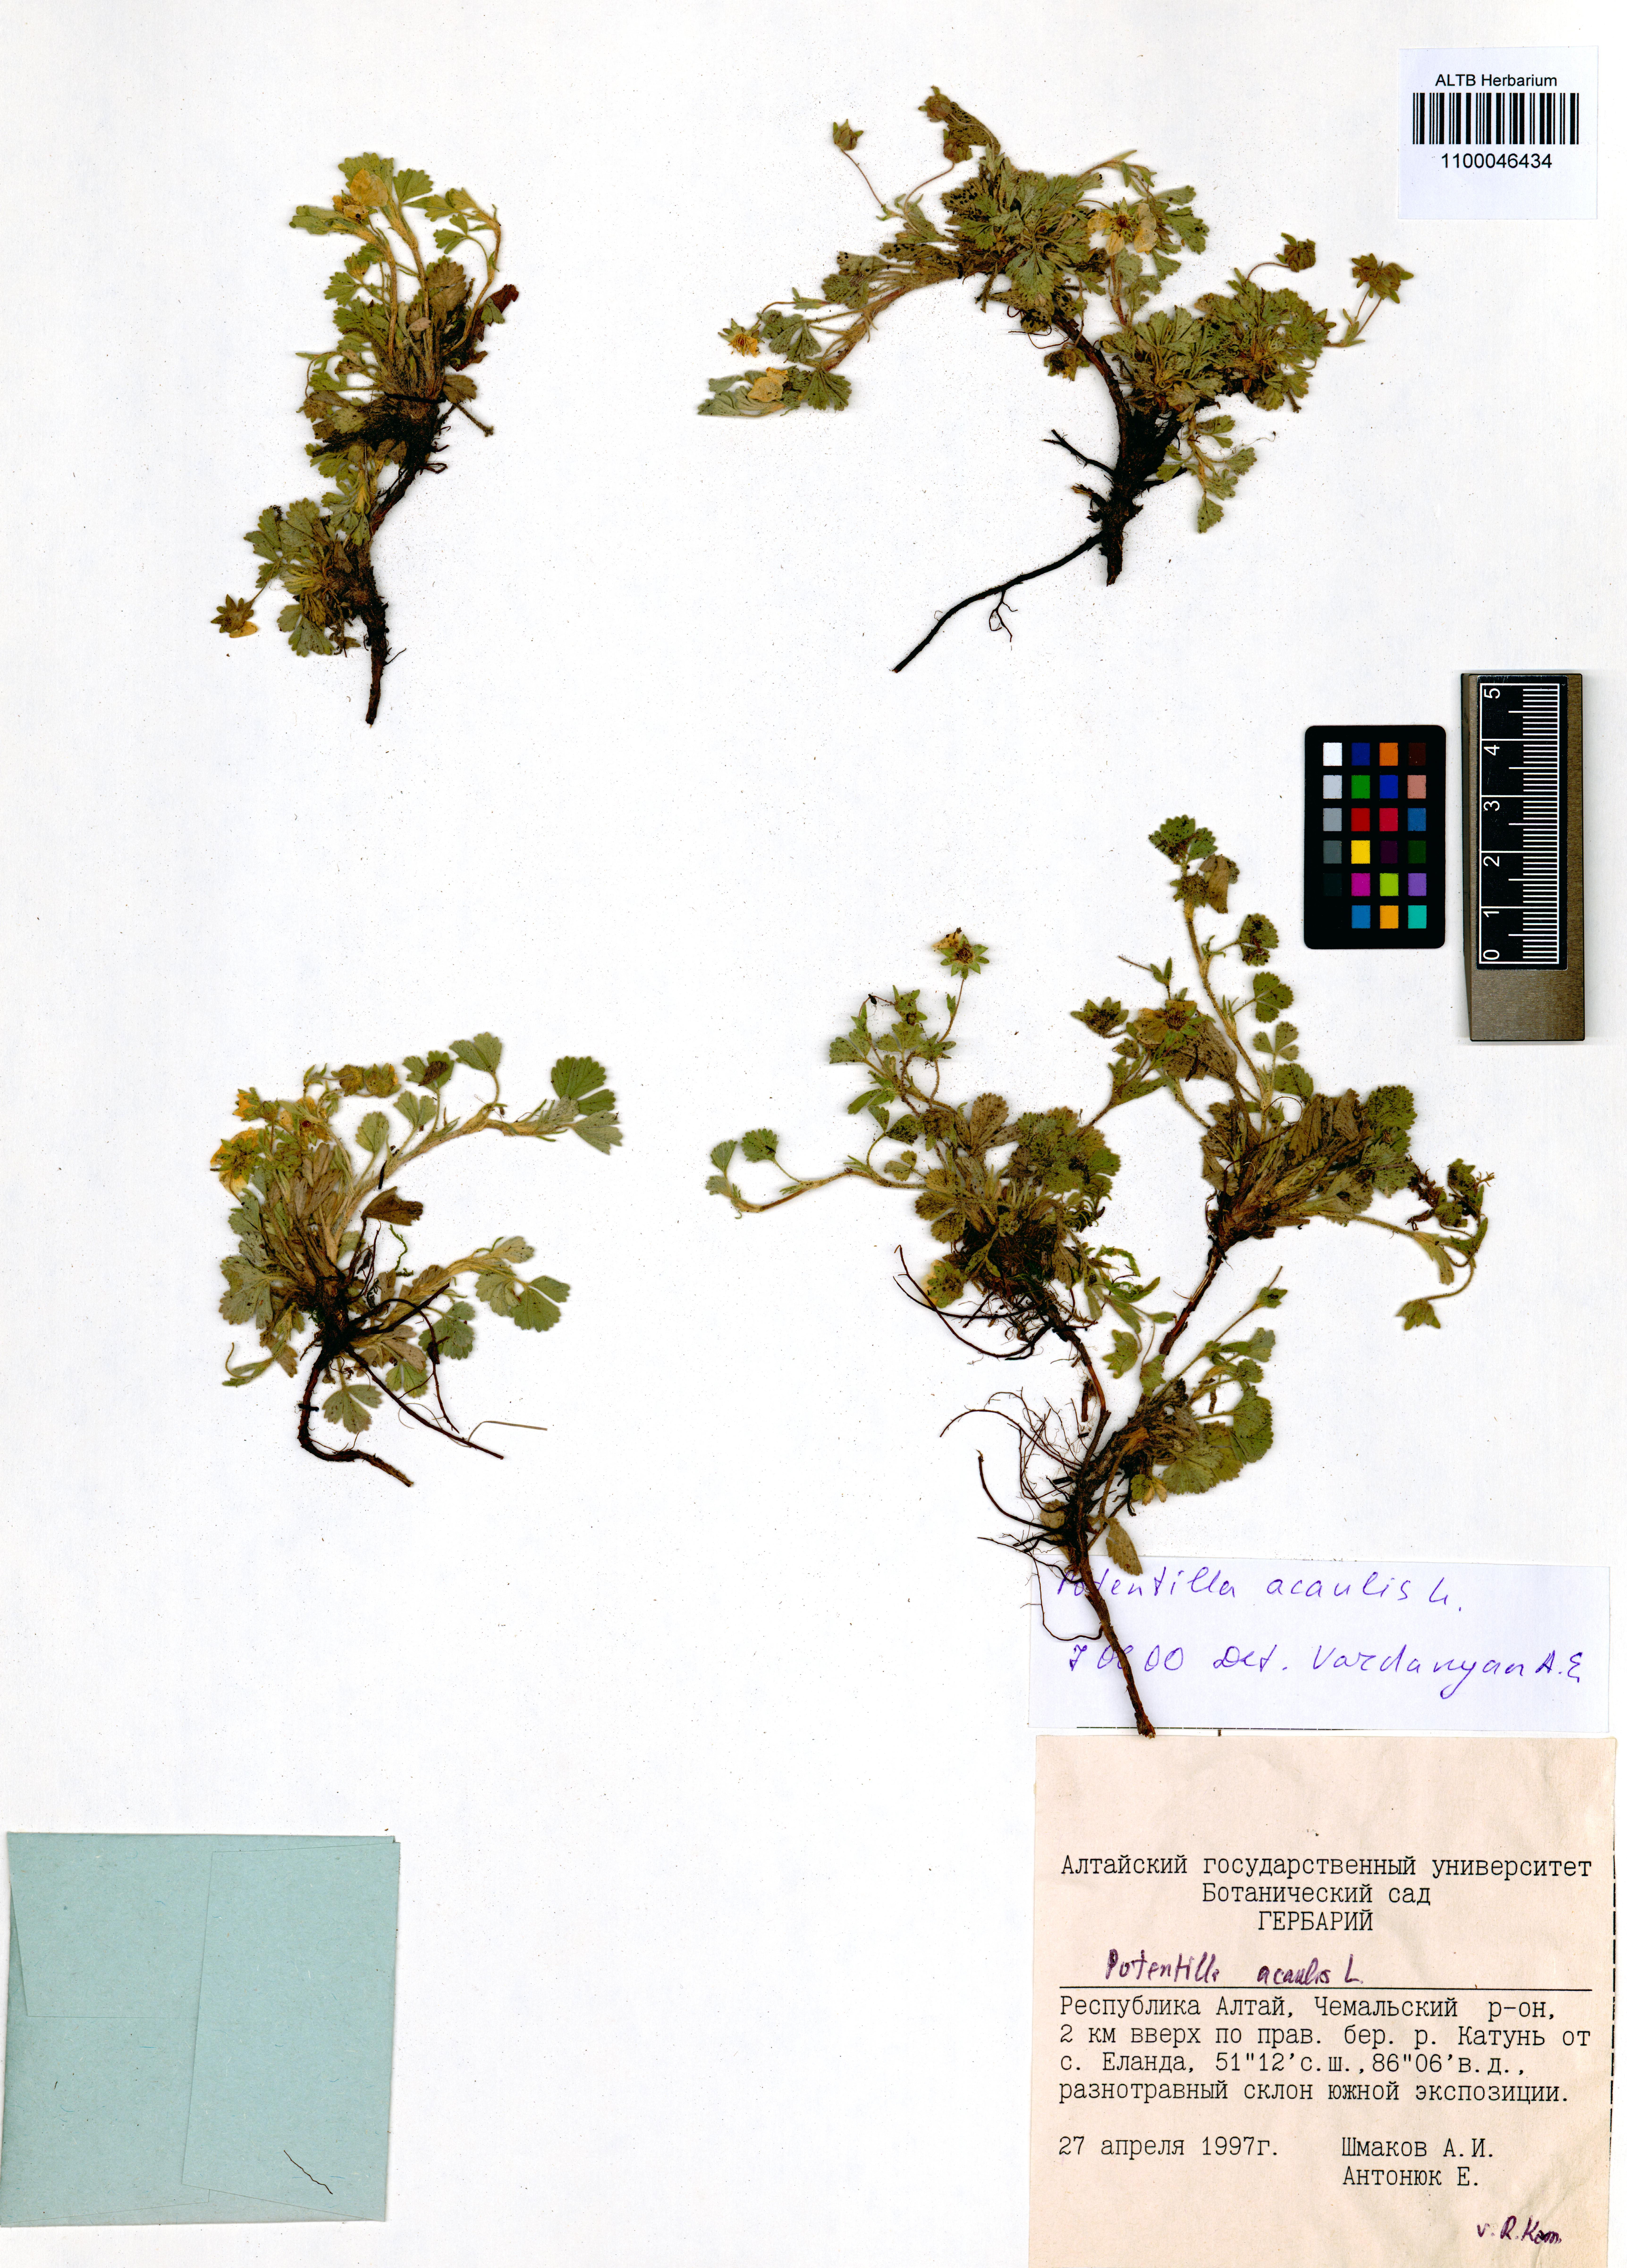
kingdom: Plantae
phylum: Tracheophyta
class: Magnoliopsida
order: Rosales
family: Rosaceae
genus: Potentilla
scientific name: Potentilla acaulis
